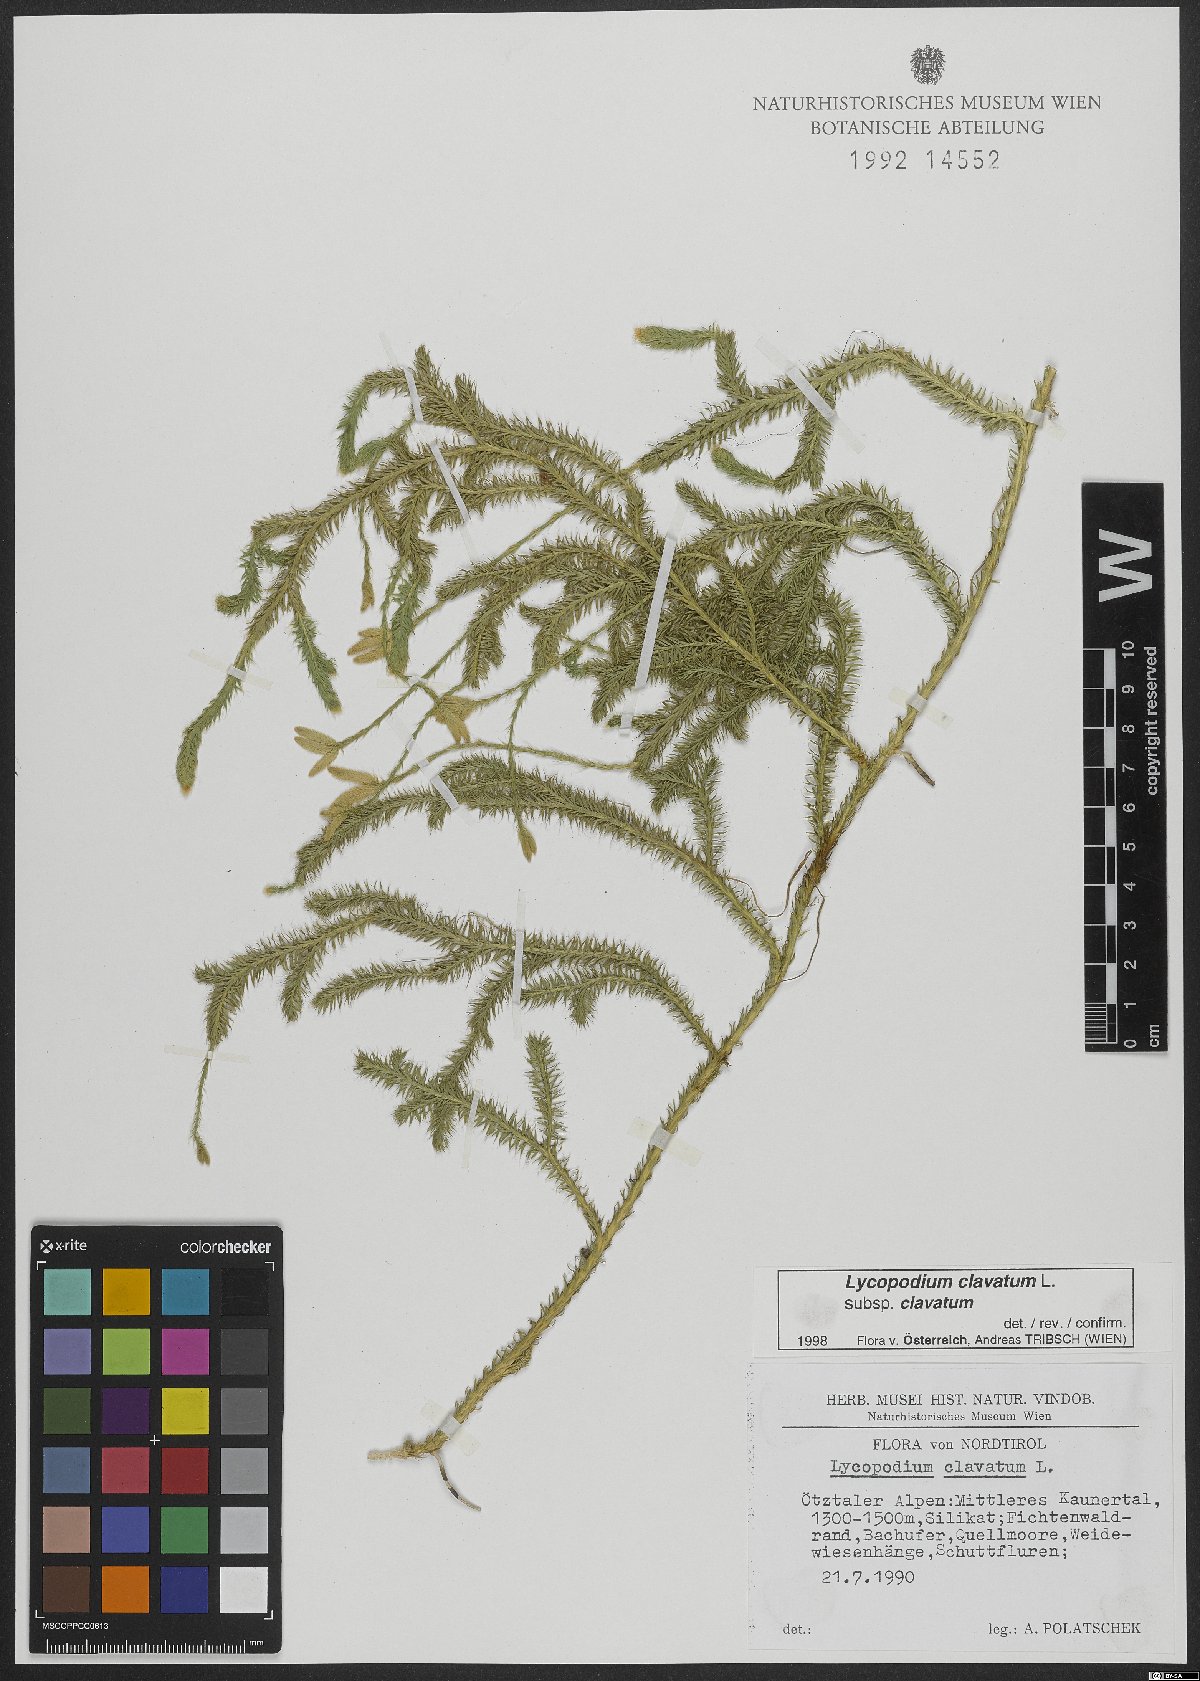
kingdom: Plantae
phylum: Tracheophyta
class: Lycopodiopsida
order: Lycopodiales
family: Lycopodiaceae
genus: Lycopodium
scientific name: Lycopodium clavatum
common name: Stag's-horn clubmoss
